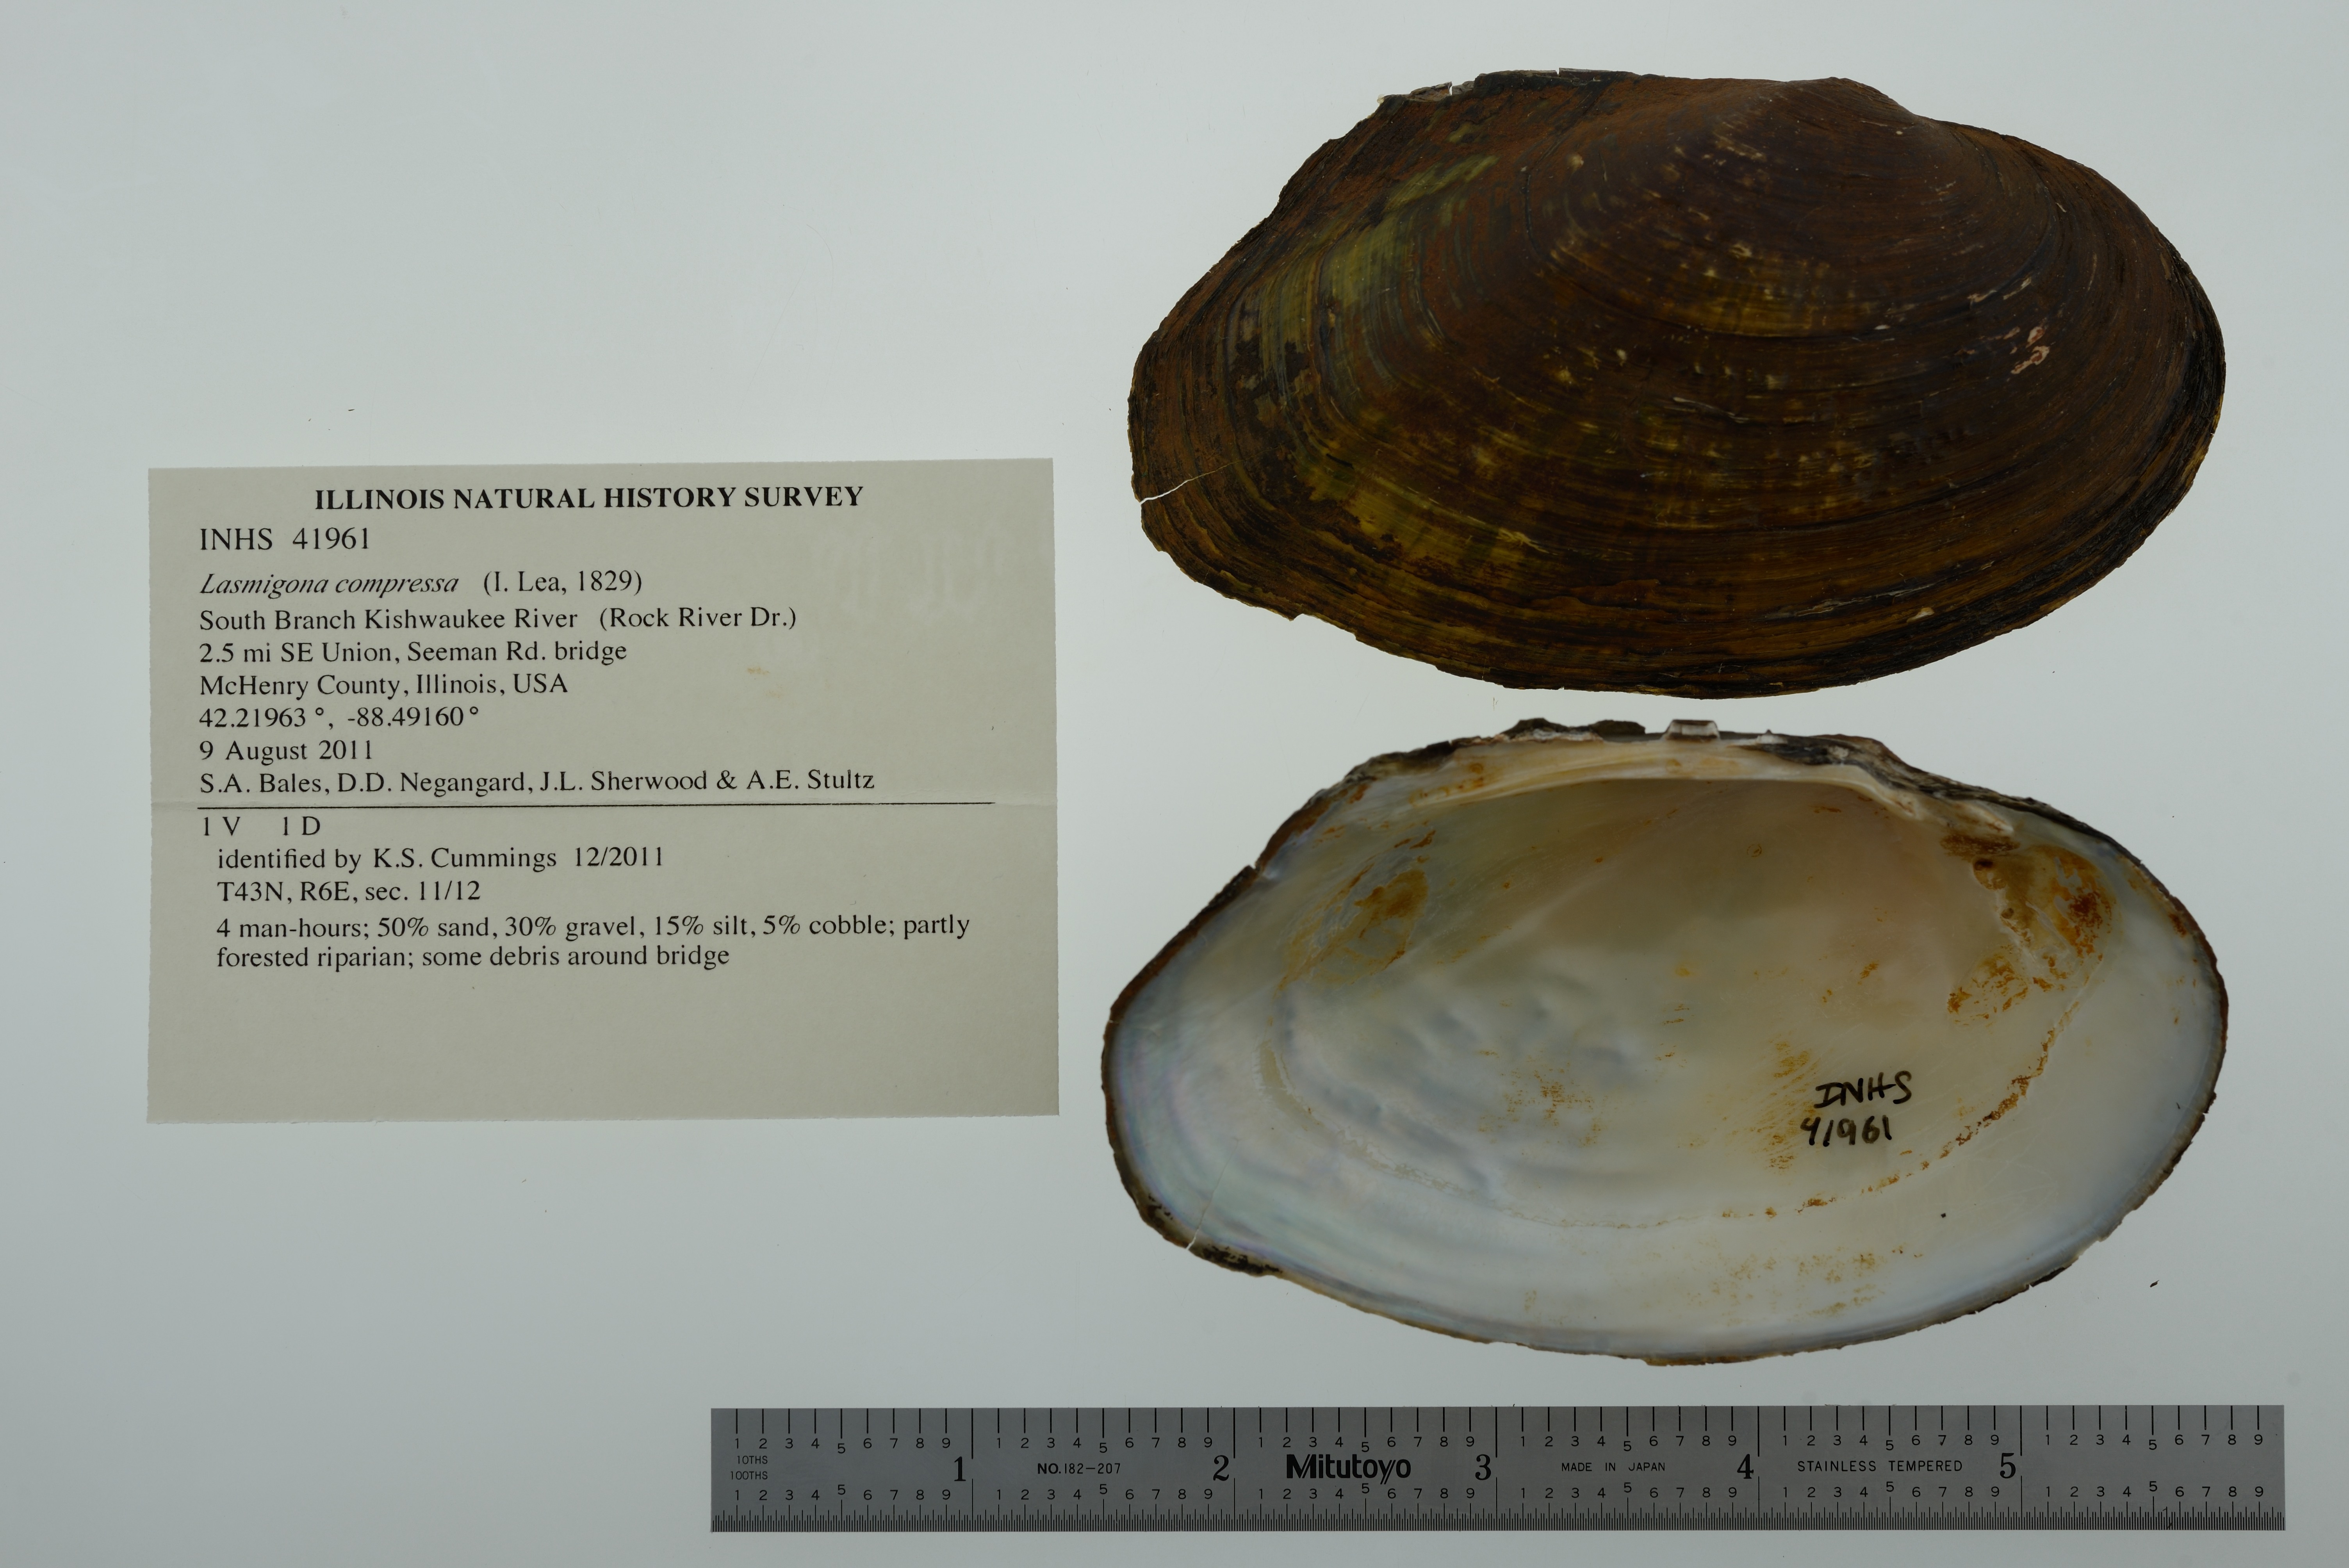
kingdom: Animalia
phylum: Mollusca
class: Bivalvia
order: Unionida
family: Unionidae
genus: Lasmigona
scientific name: Lasmigona compressa
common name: Creek heelsplitter
